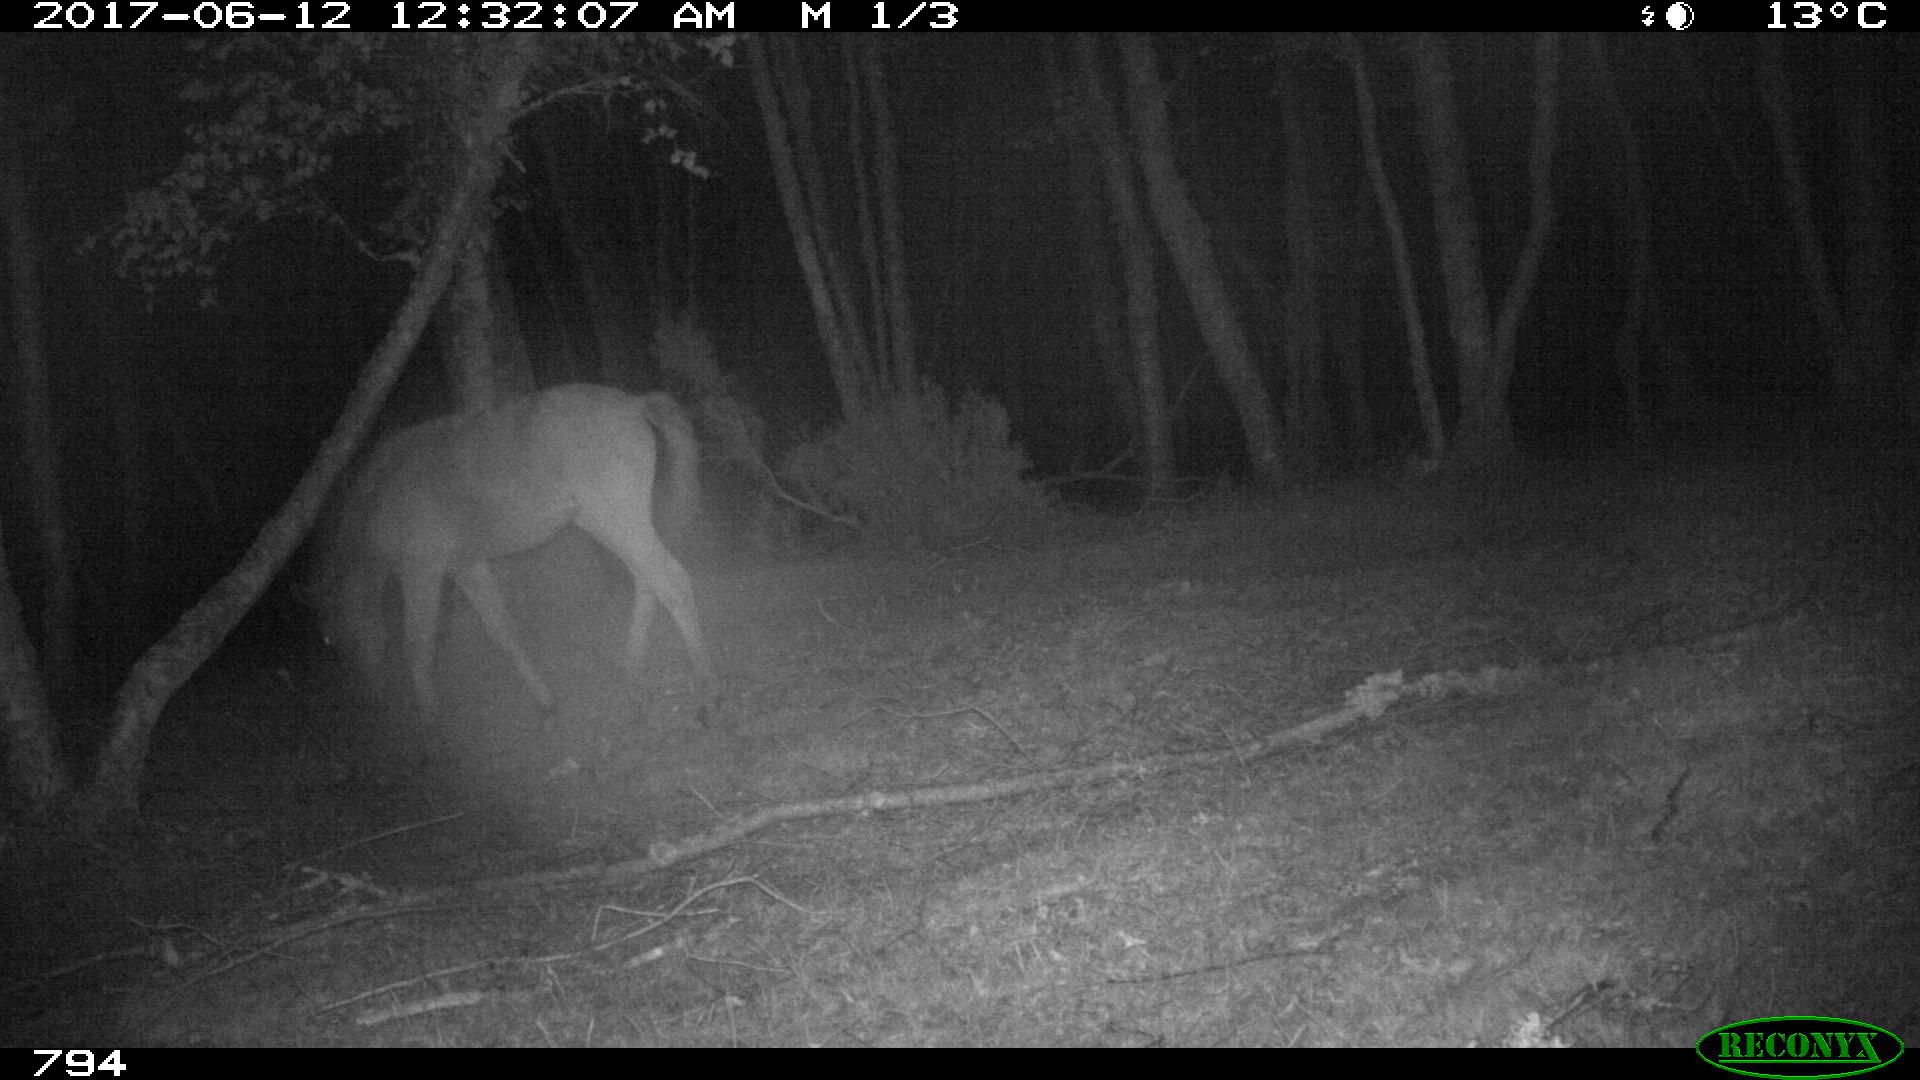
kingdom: Animalia
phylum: Chordata
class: Mammalia
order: Perissodactyla
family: Equidae
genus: Equus
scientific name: Equus caballus
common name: Horse
